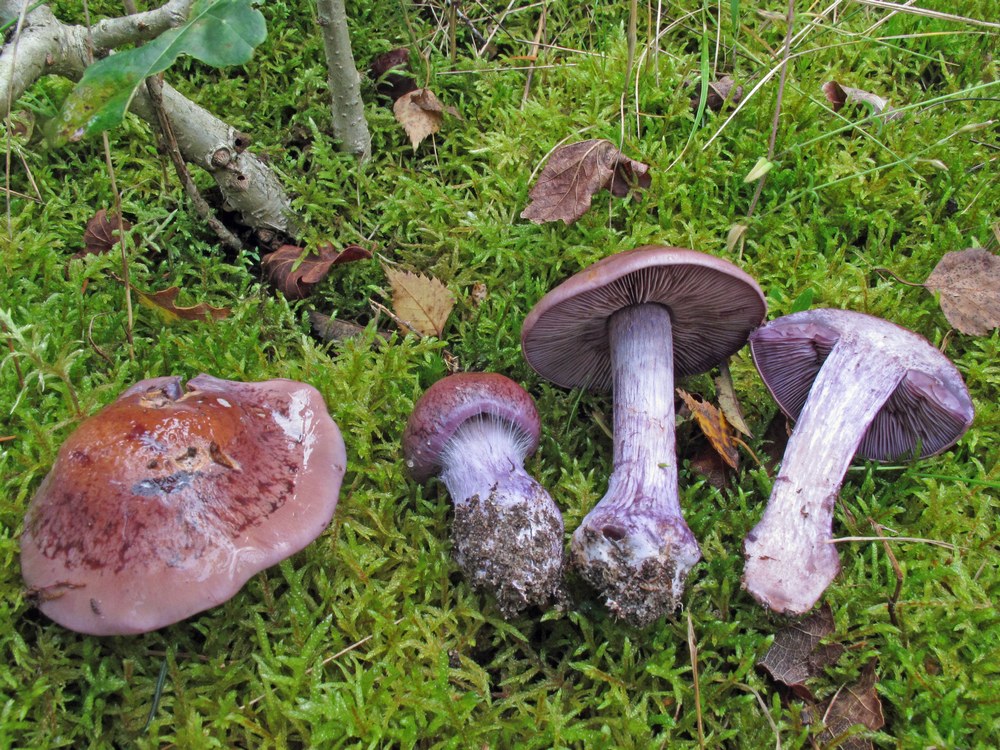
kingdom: Fungi
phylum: Basidiomycota
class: Agaricomycetes
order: Agaricales
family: Cortinariaceae
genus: Thaxterogaster
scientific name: Thaxterogaster purpurascens
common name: purpurbrun slørhat
